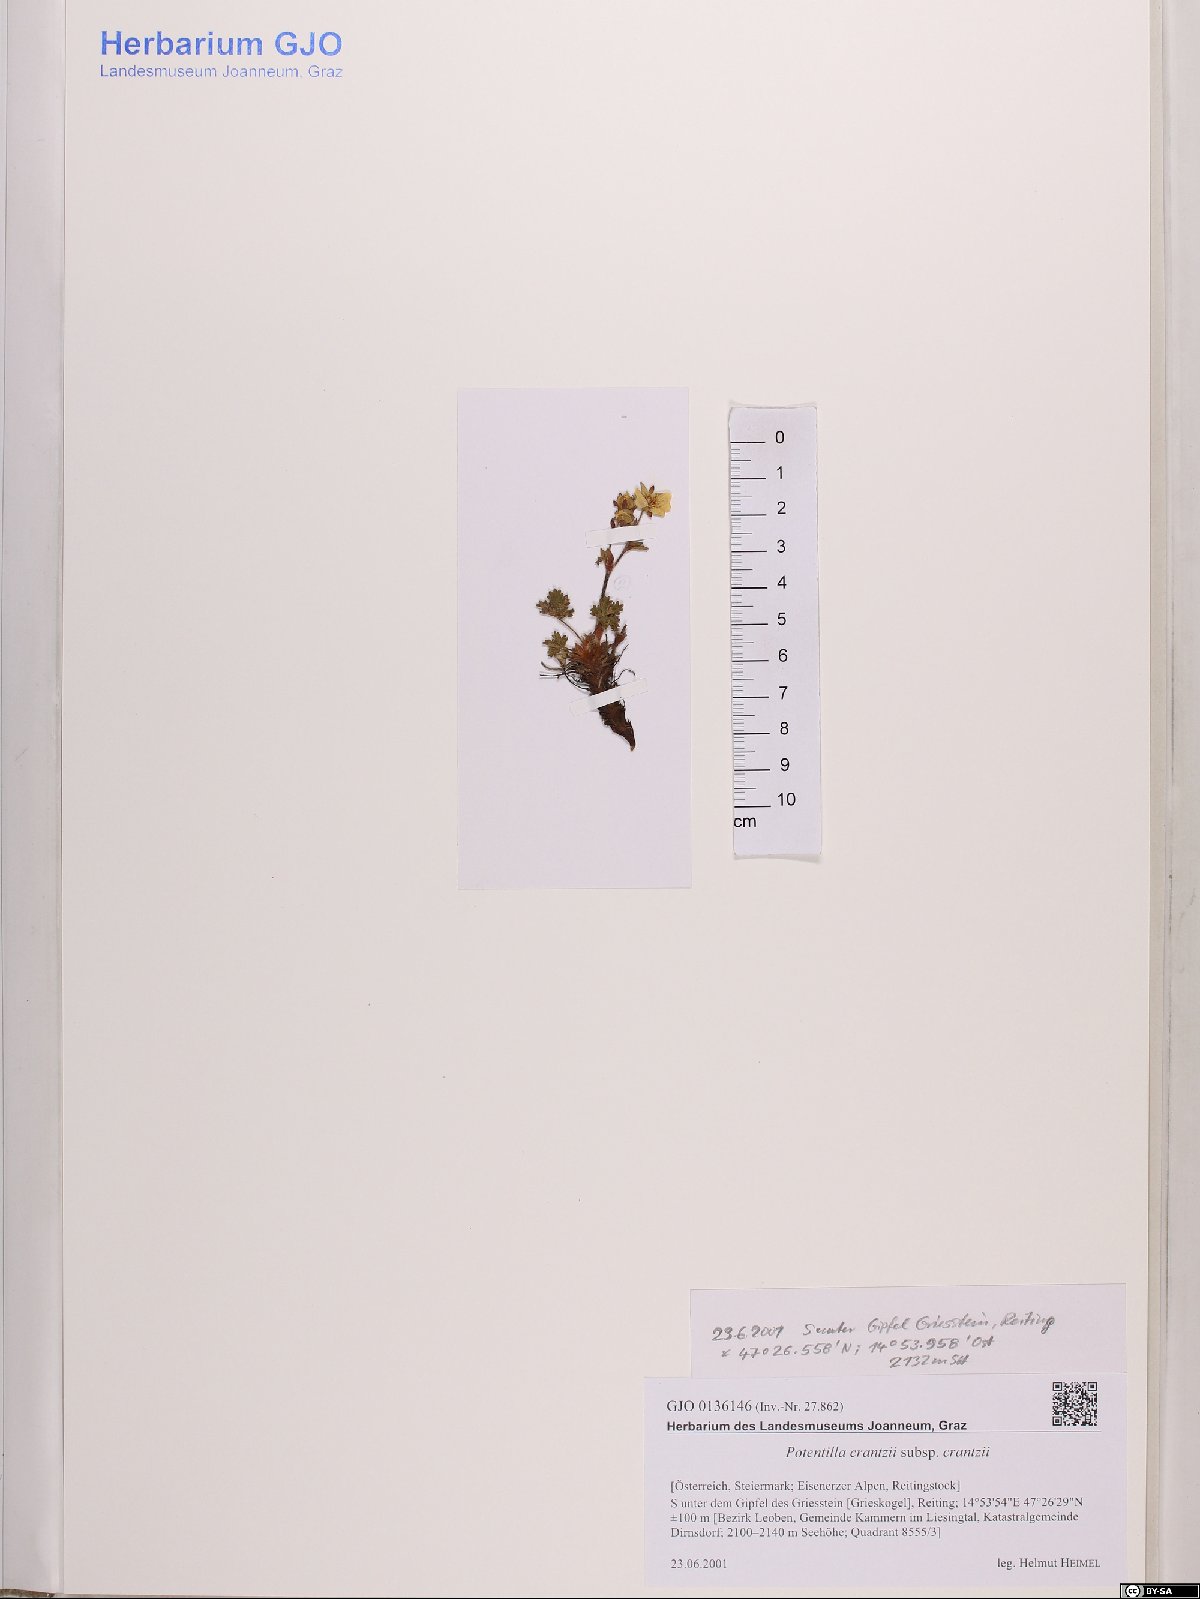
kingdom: Plantae
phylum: Tracheophyta
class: Magnoliopsida
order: Rosales
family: Rosaceae
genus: Potentilla
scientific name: Potentilla crantzii
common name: Alpine cinquefoil
